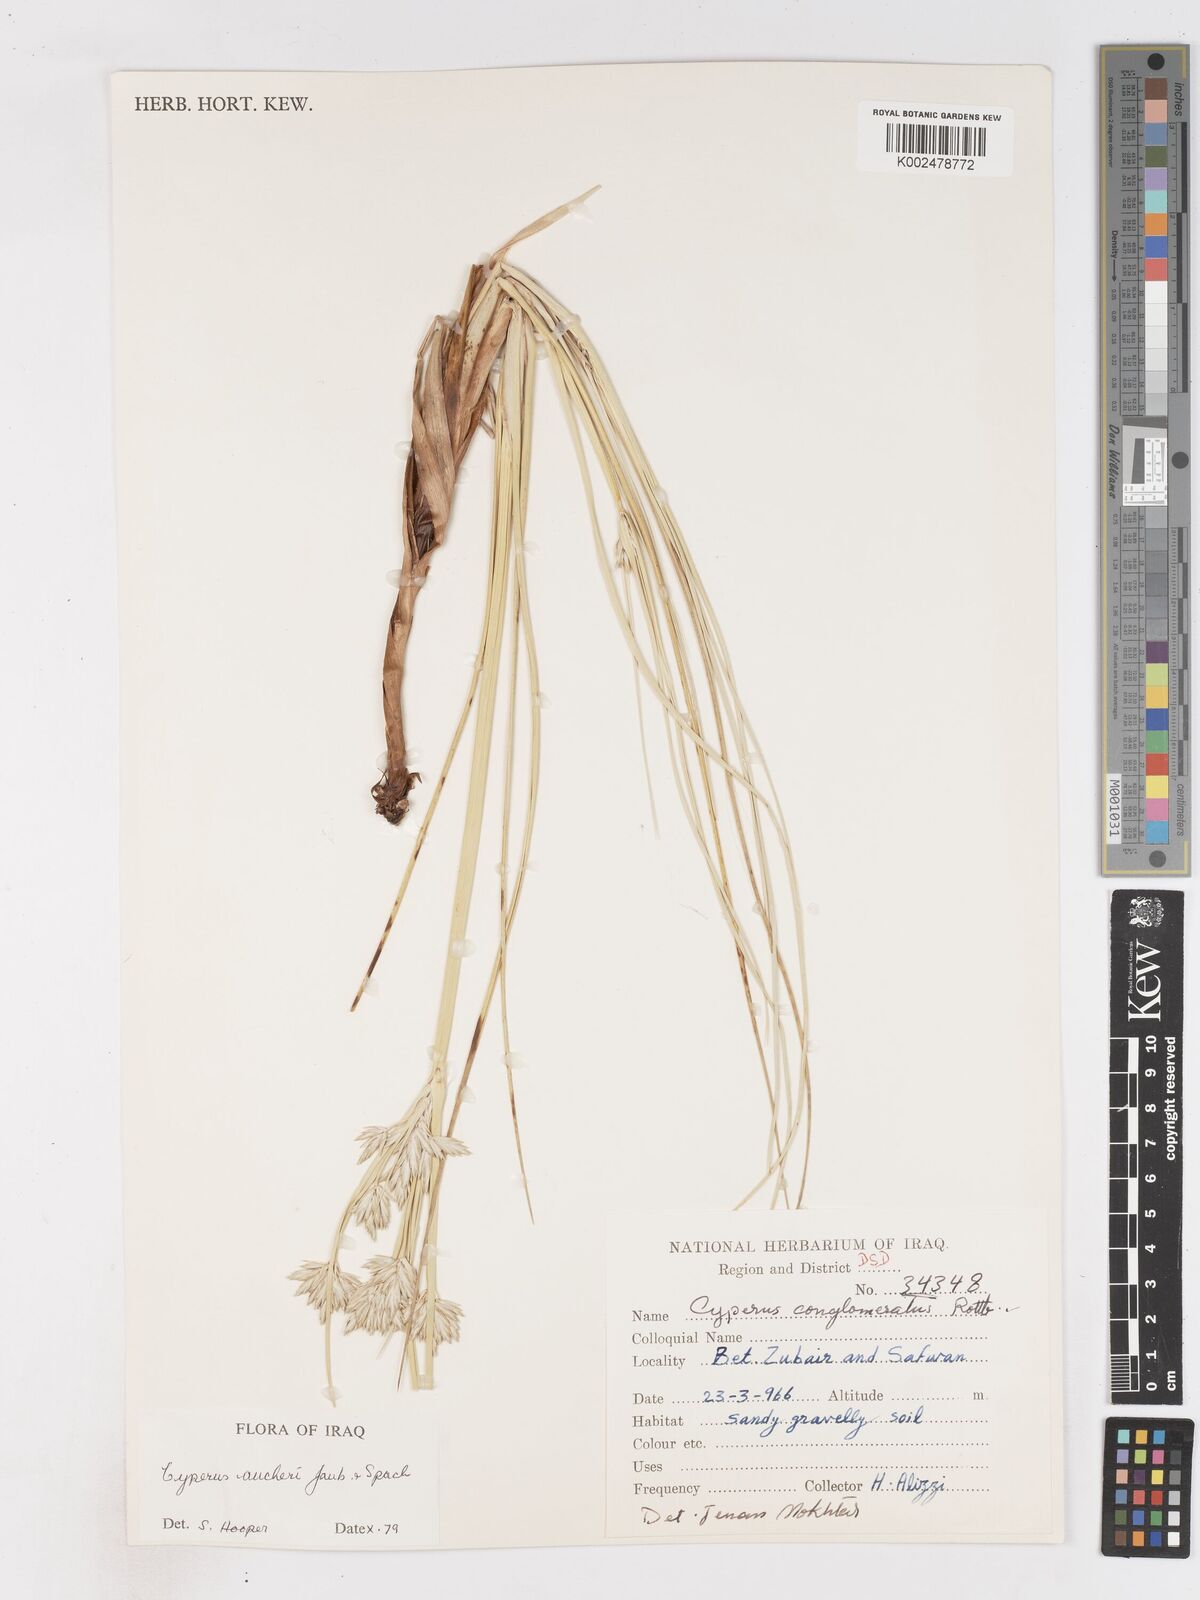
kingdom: Plantae
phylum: Tracheophyta
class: Liliopsida
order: Poales
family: Cyperaceae
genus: Cyperus
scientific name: Cyperus aucheri
